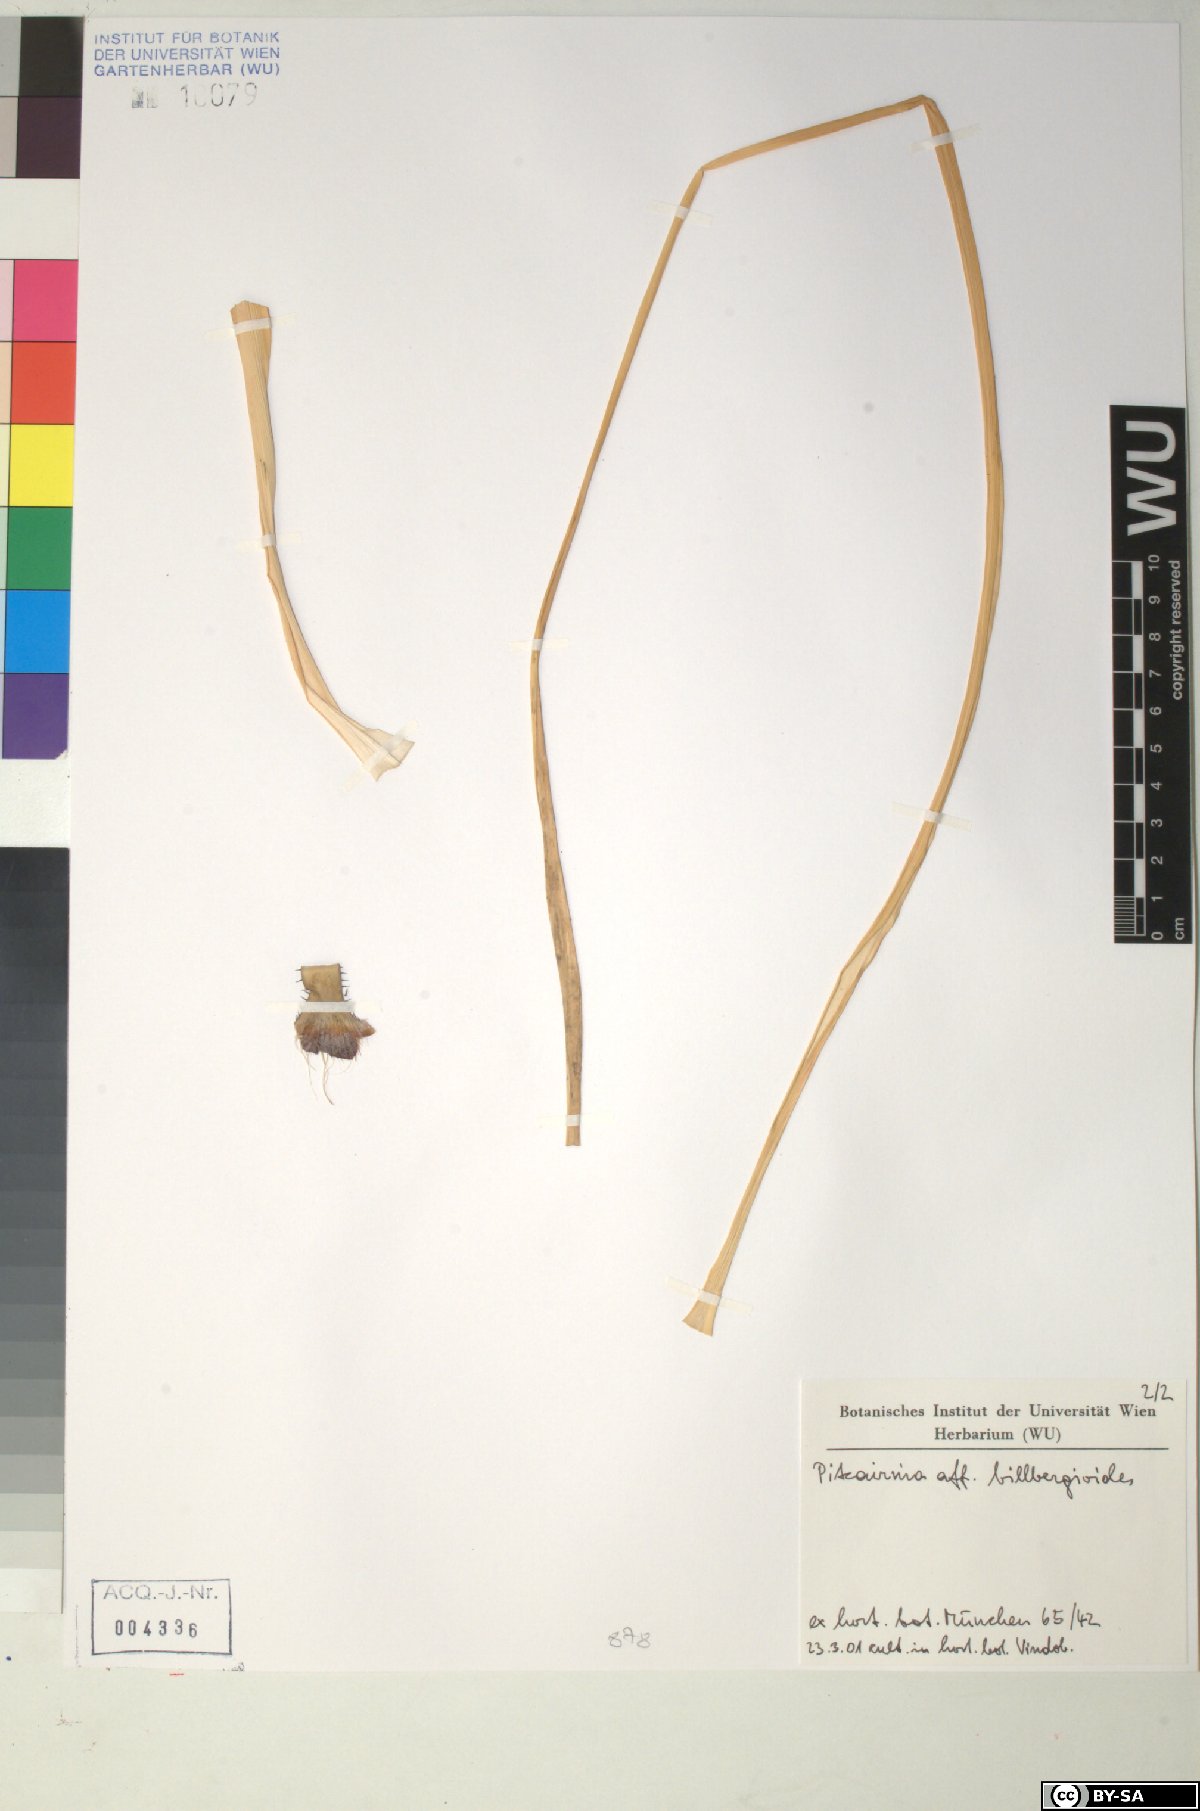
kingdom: Plantae
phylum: Tracheophyta
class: Liliopsida
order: Poales
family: Bromeliaceae
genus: Pitcairnia
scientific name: Pitcairnia billbergioides
